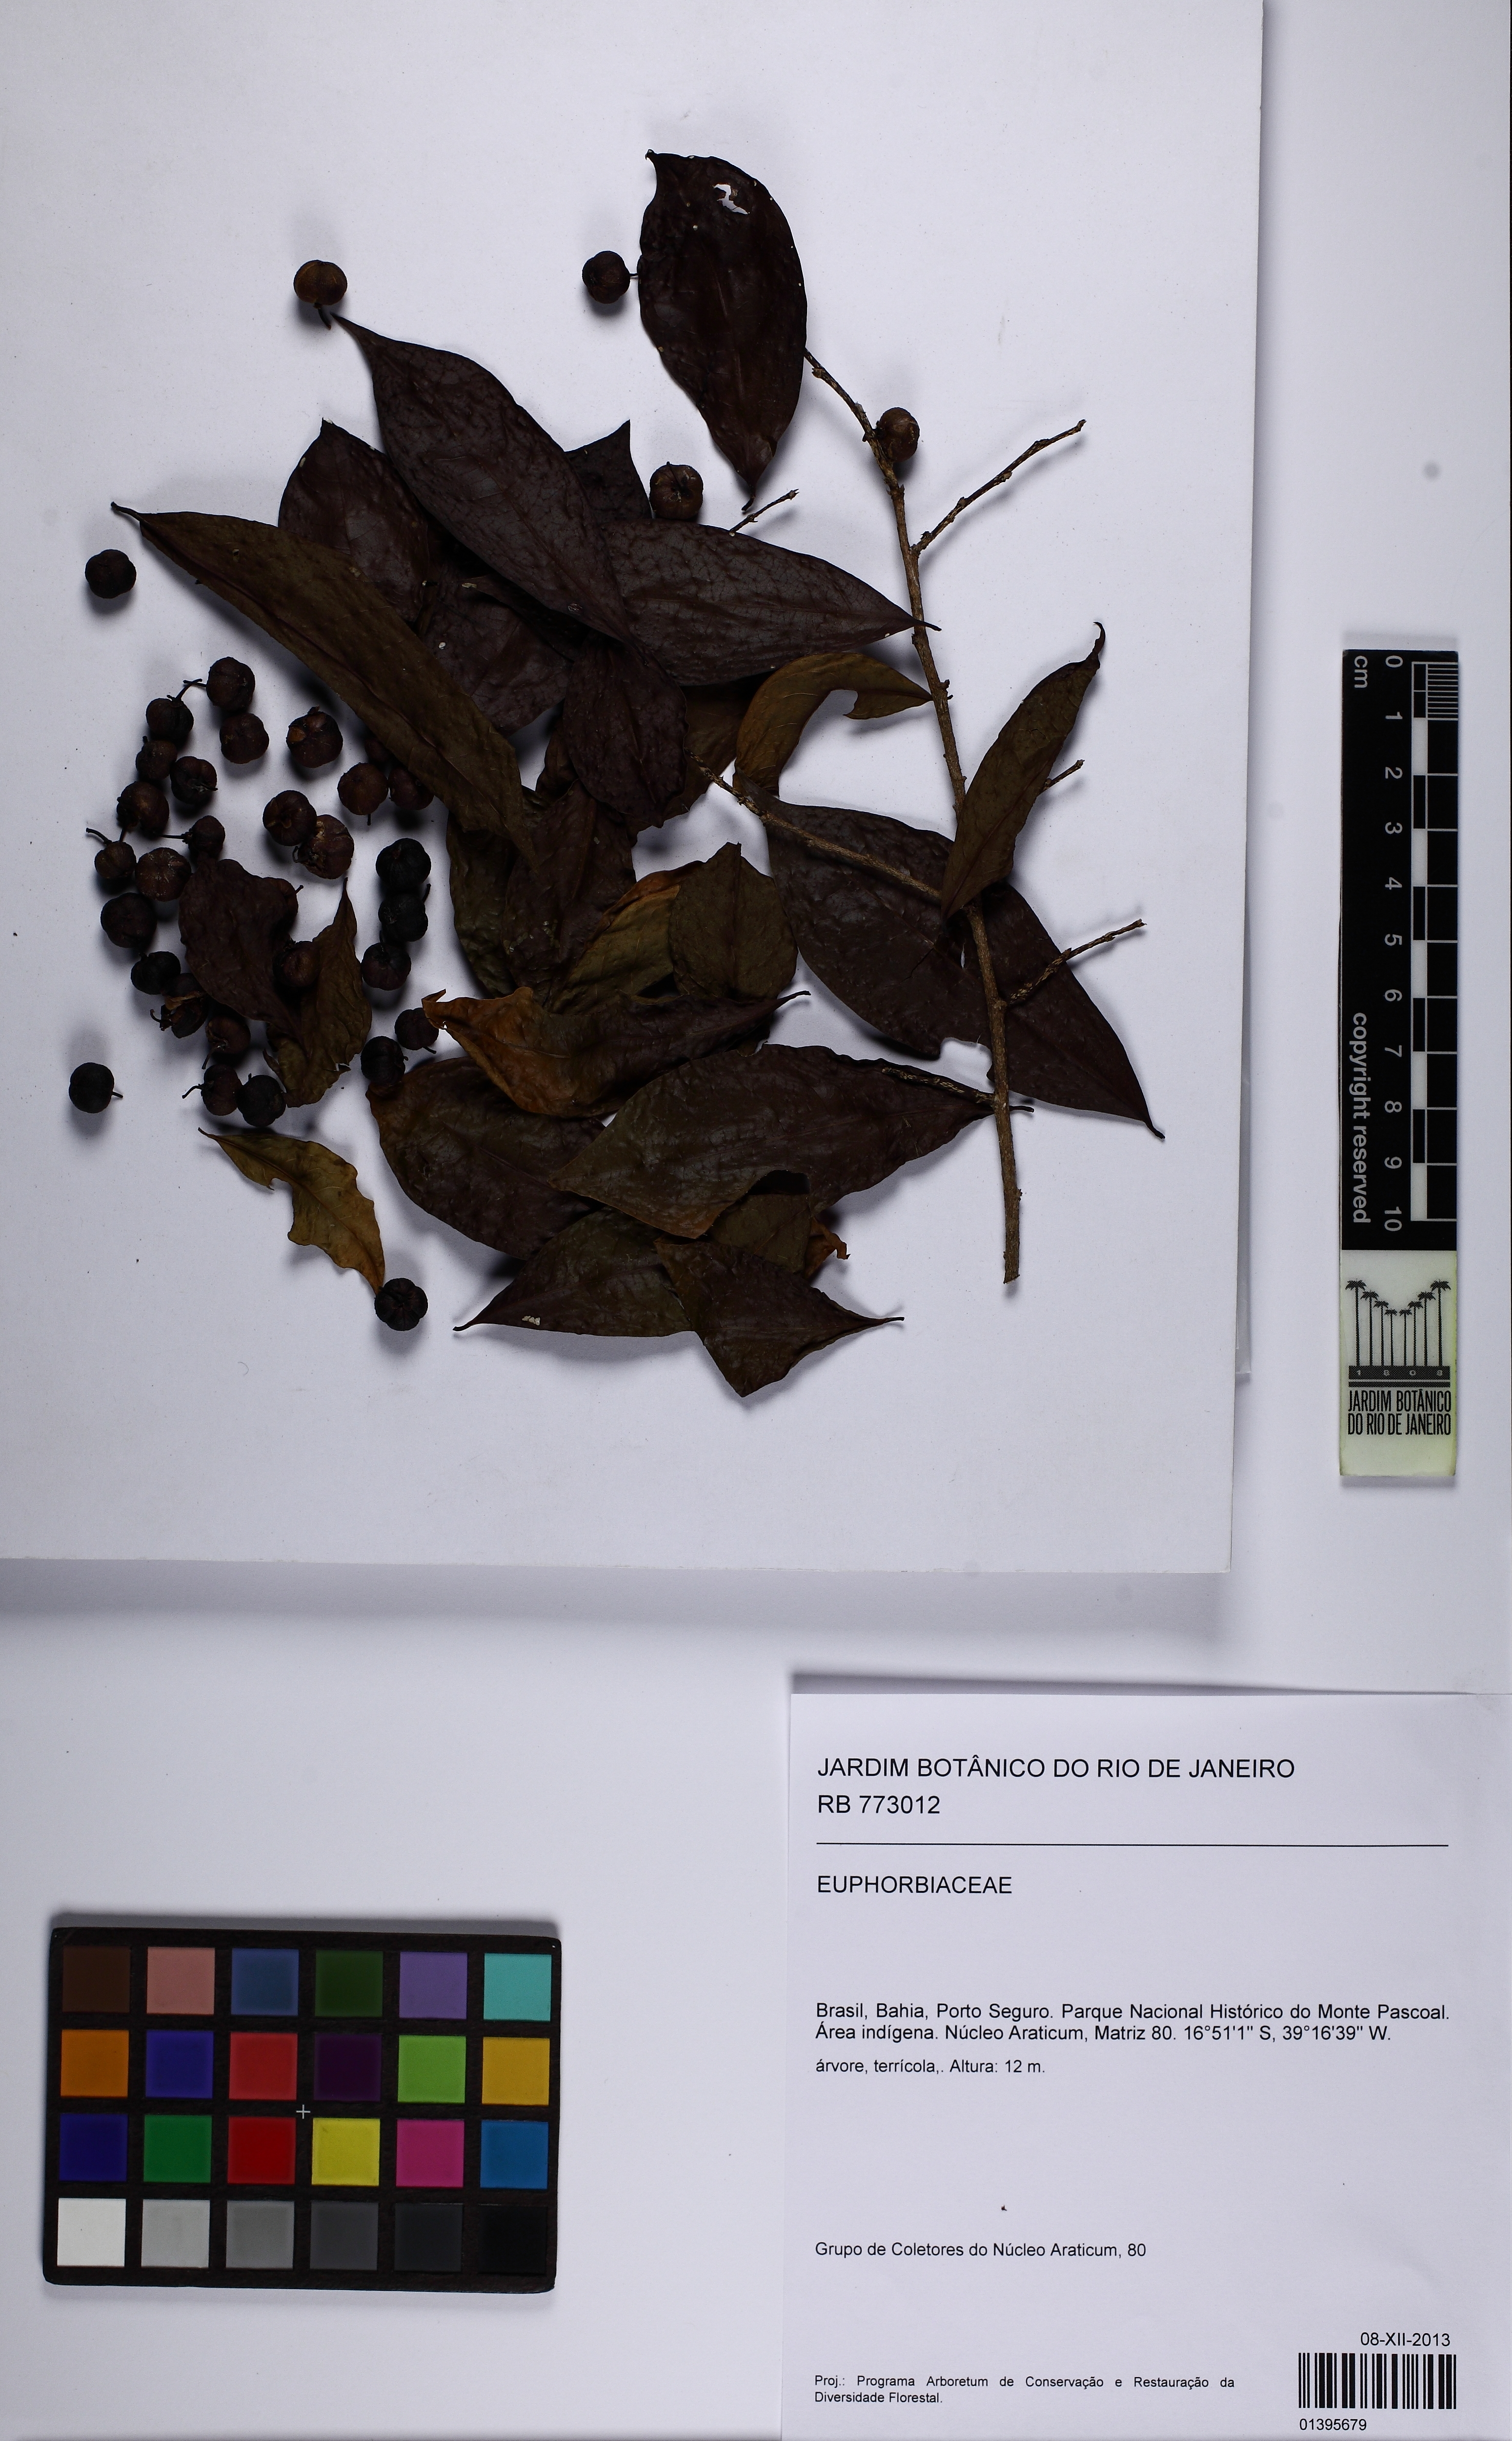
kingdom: Plantae
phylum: Tracheophyta
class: Magnoliopsida
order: Malpighiales
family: Phyllanthaceae
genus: Margaritaria
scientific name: Margaritaria nobilis
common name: Goose berry
